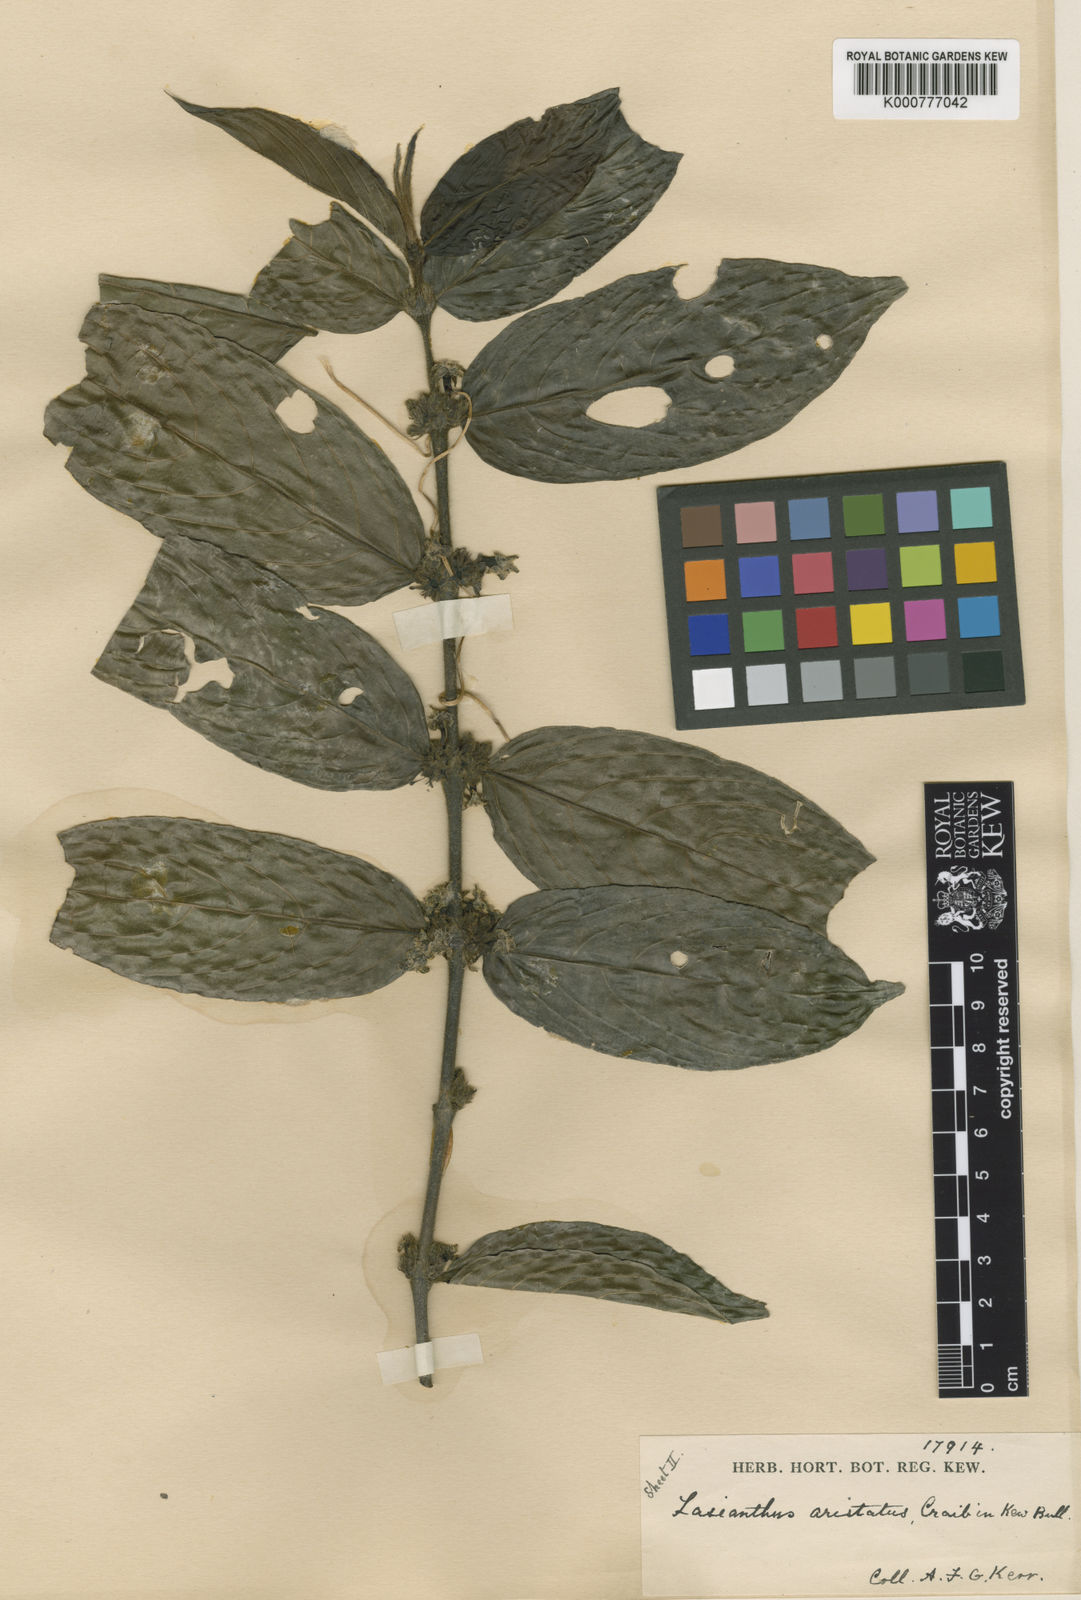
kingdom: Plantae
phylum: Tracheophyta
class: Magnoliopsida
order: Gentianales
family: Rubiaceae
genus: Lasianthus
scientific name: Lasianthus aristatus
